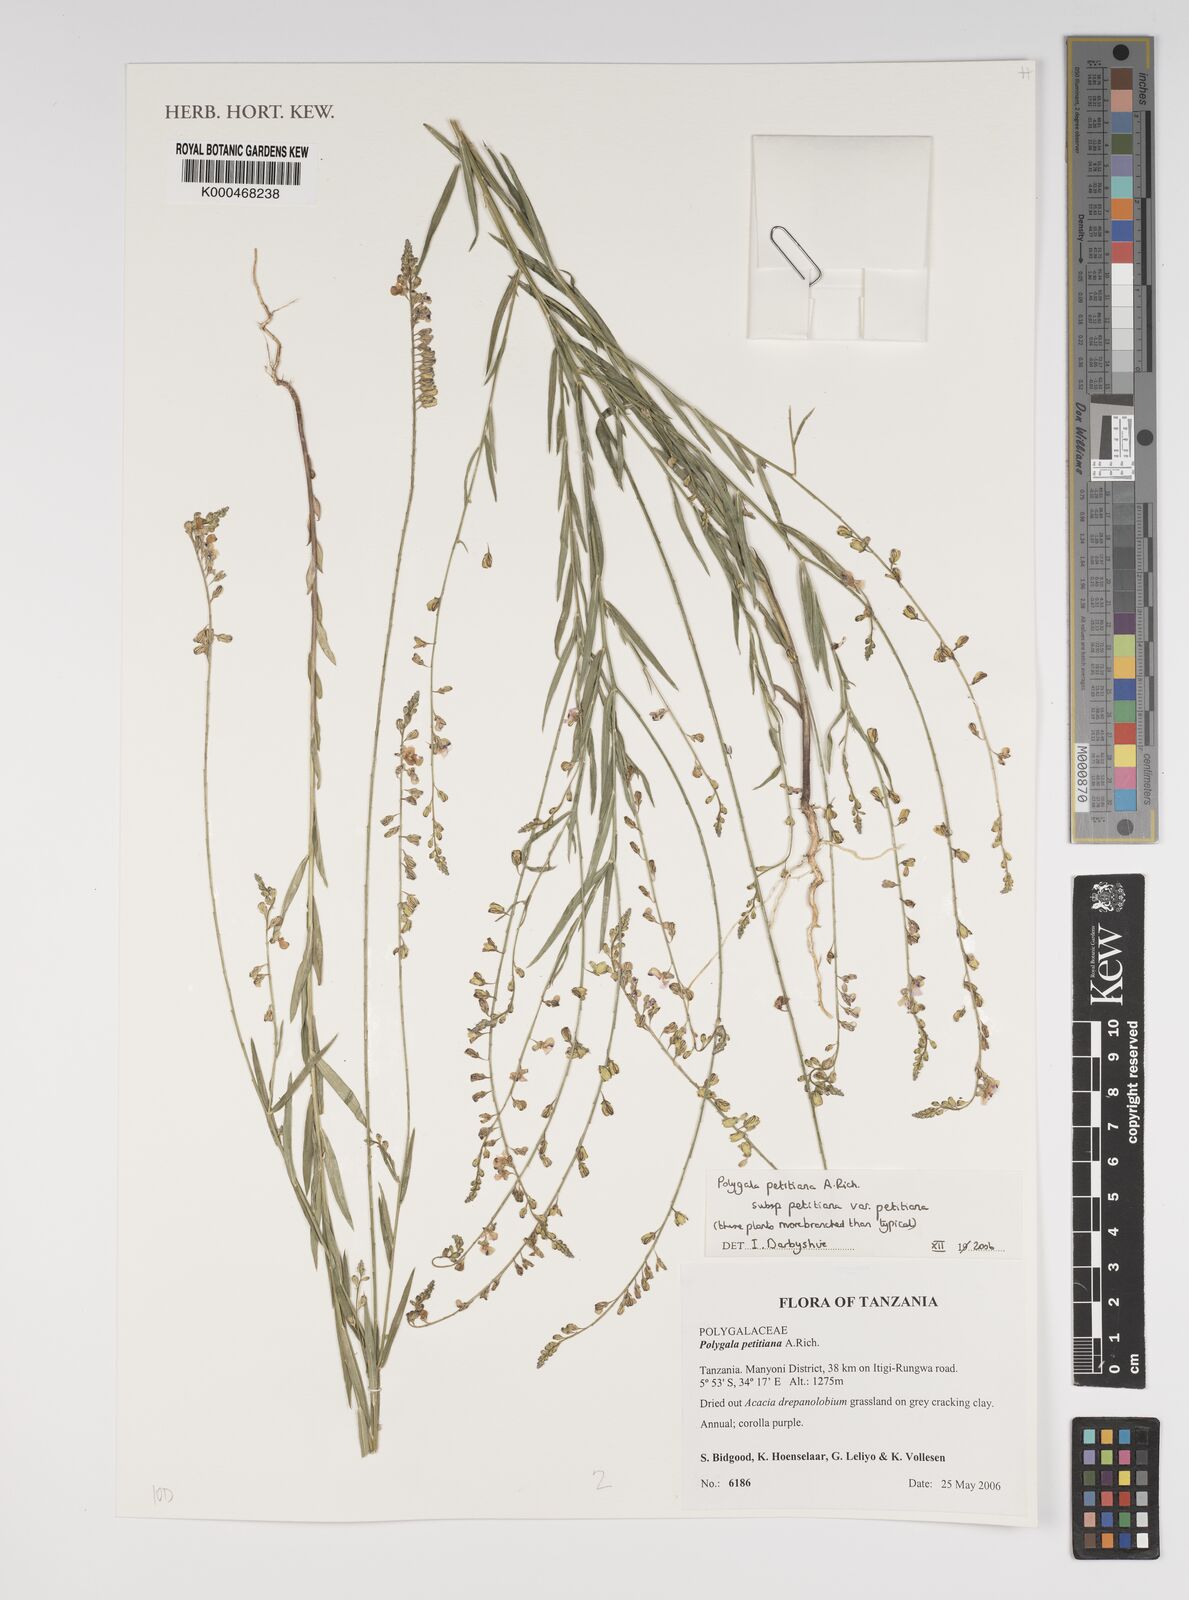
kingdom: Plantae
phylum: Tracheophyta
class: Magnoliopsida
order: Fabales
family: Polygalaceae
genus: Polygala
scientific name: Polygala petitiana
